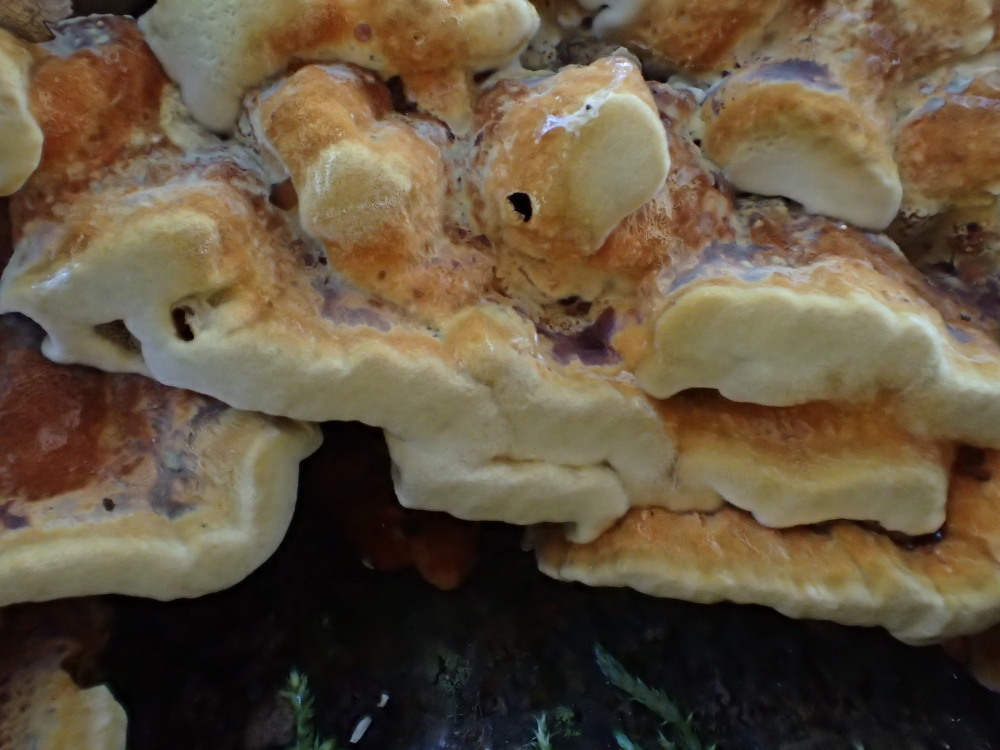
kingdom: Fungi
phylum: Basidiomycota
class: Agaricomycetes
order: Hymenochaetales
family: Hymenochaetaceae
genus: Xanthoporia
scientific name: Xanthoporia radiata
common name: elle-spejlporesvamp
